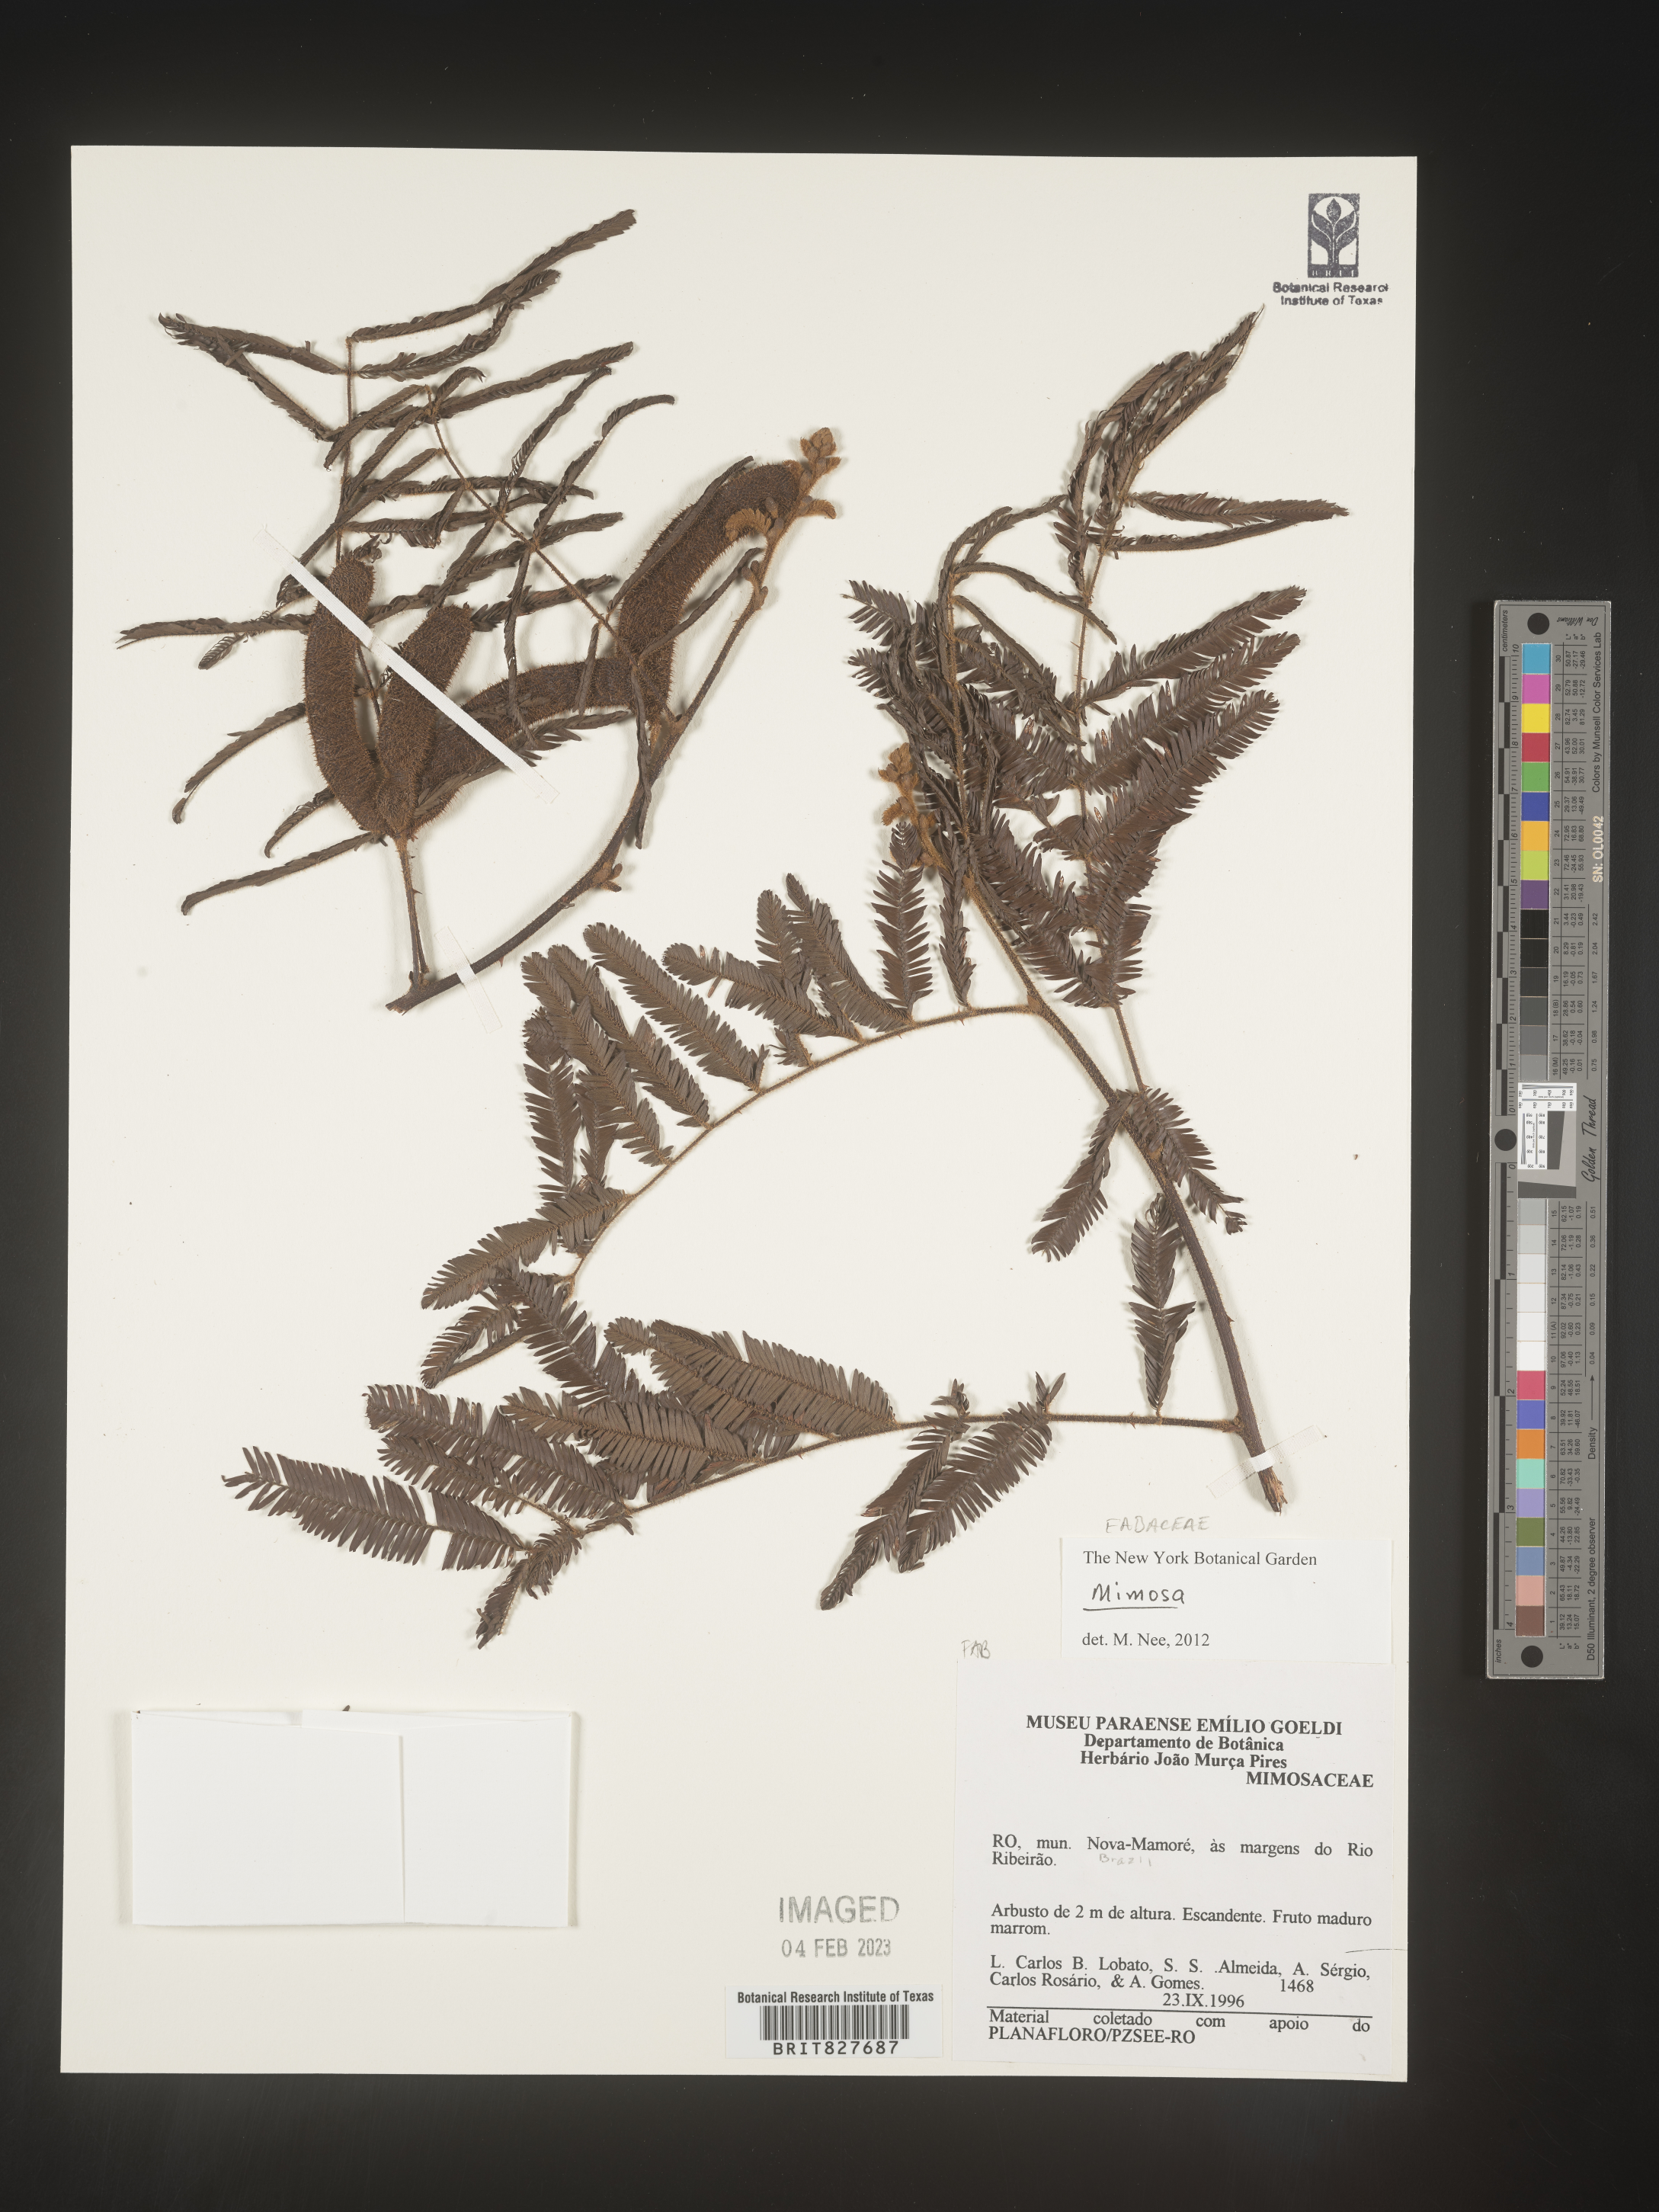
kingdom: Plantae
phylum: Tracheophyta
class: Magnoliopsida
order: Fabales
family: Fabaceae
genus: Mimosa
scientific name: Mimosa
